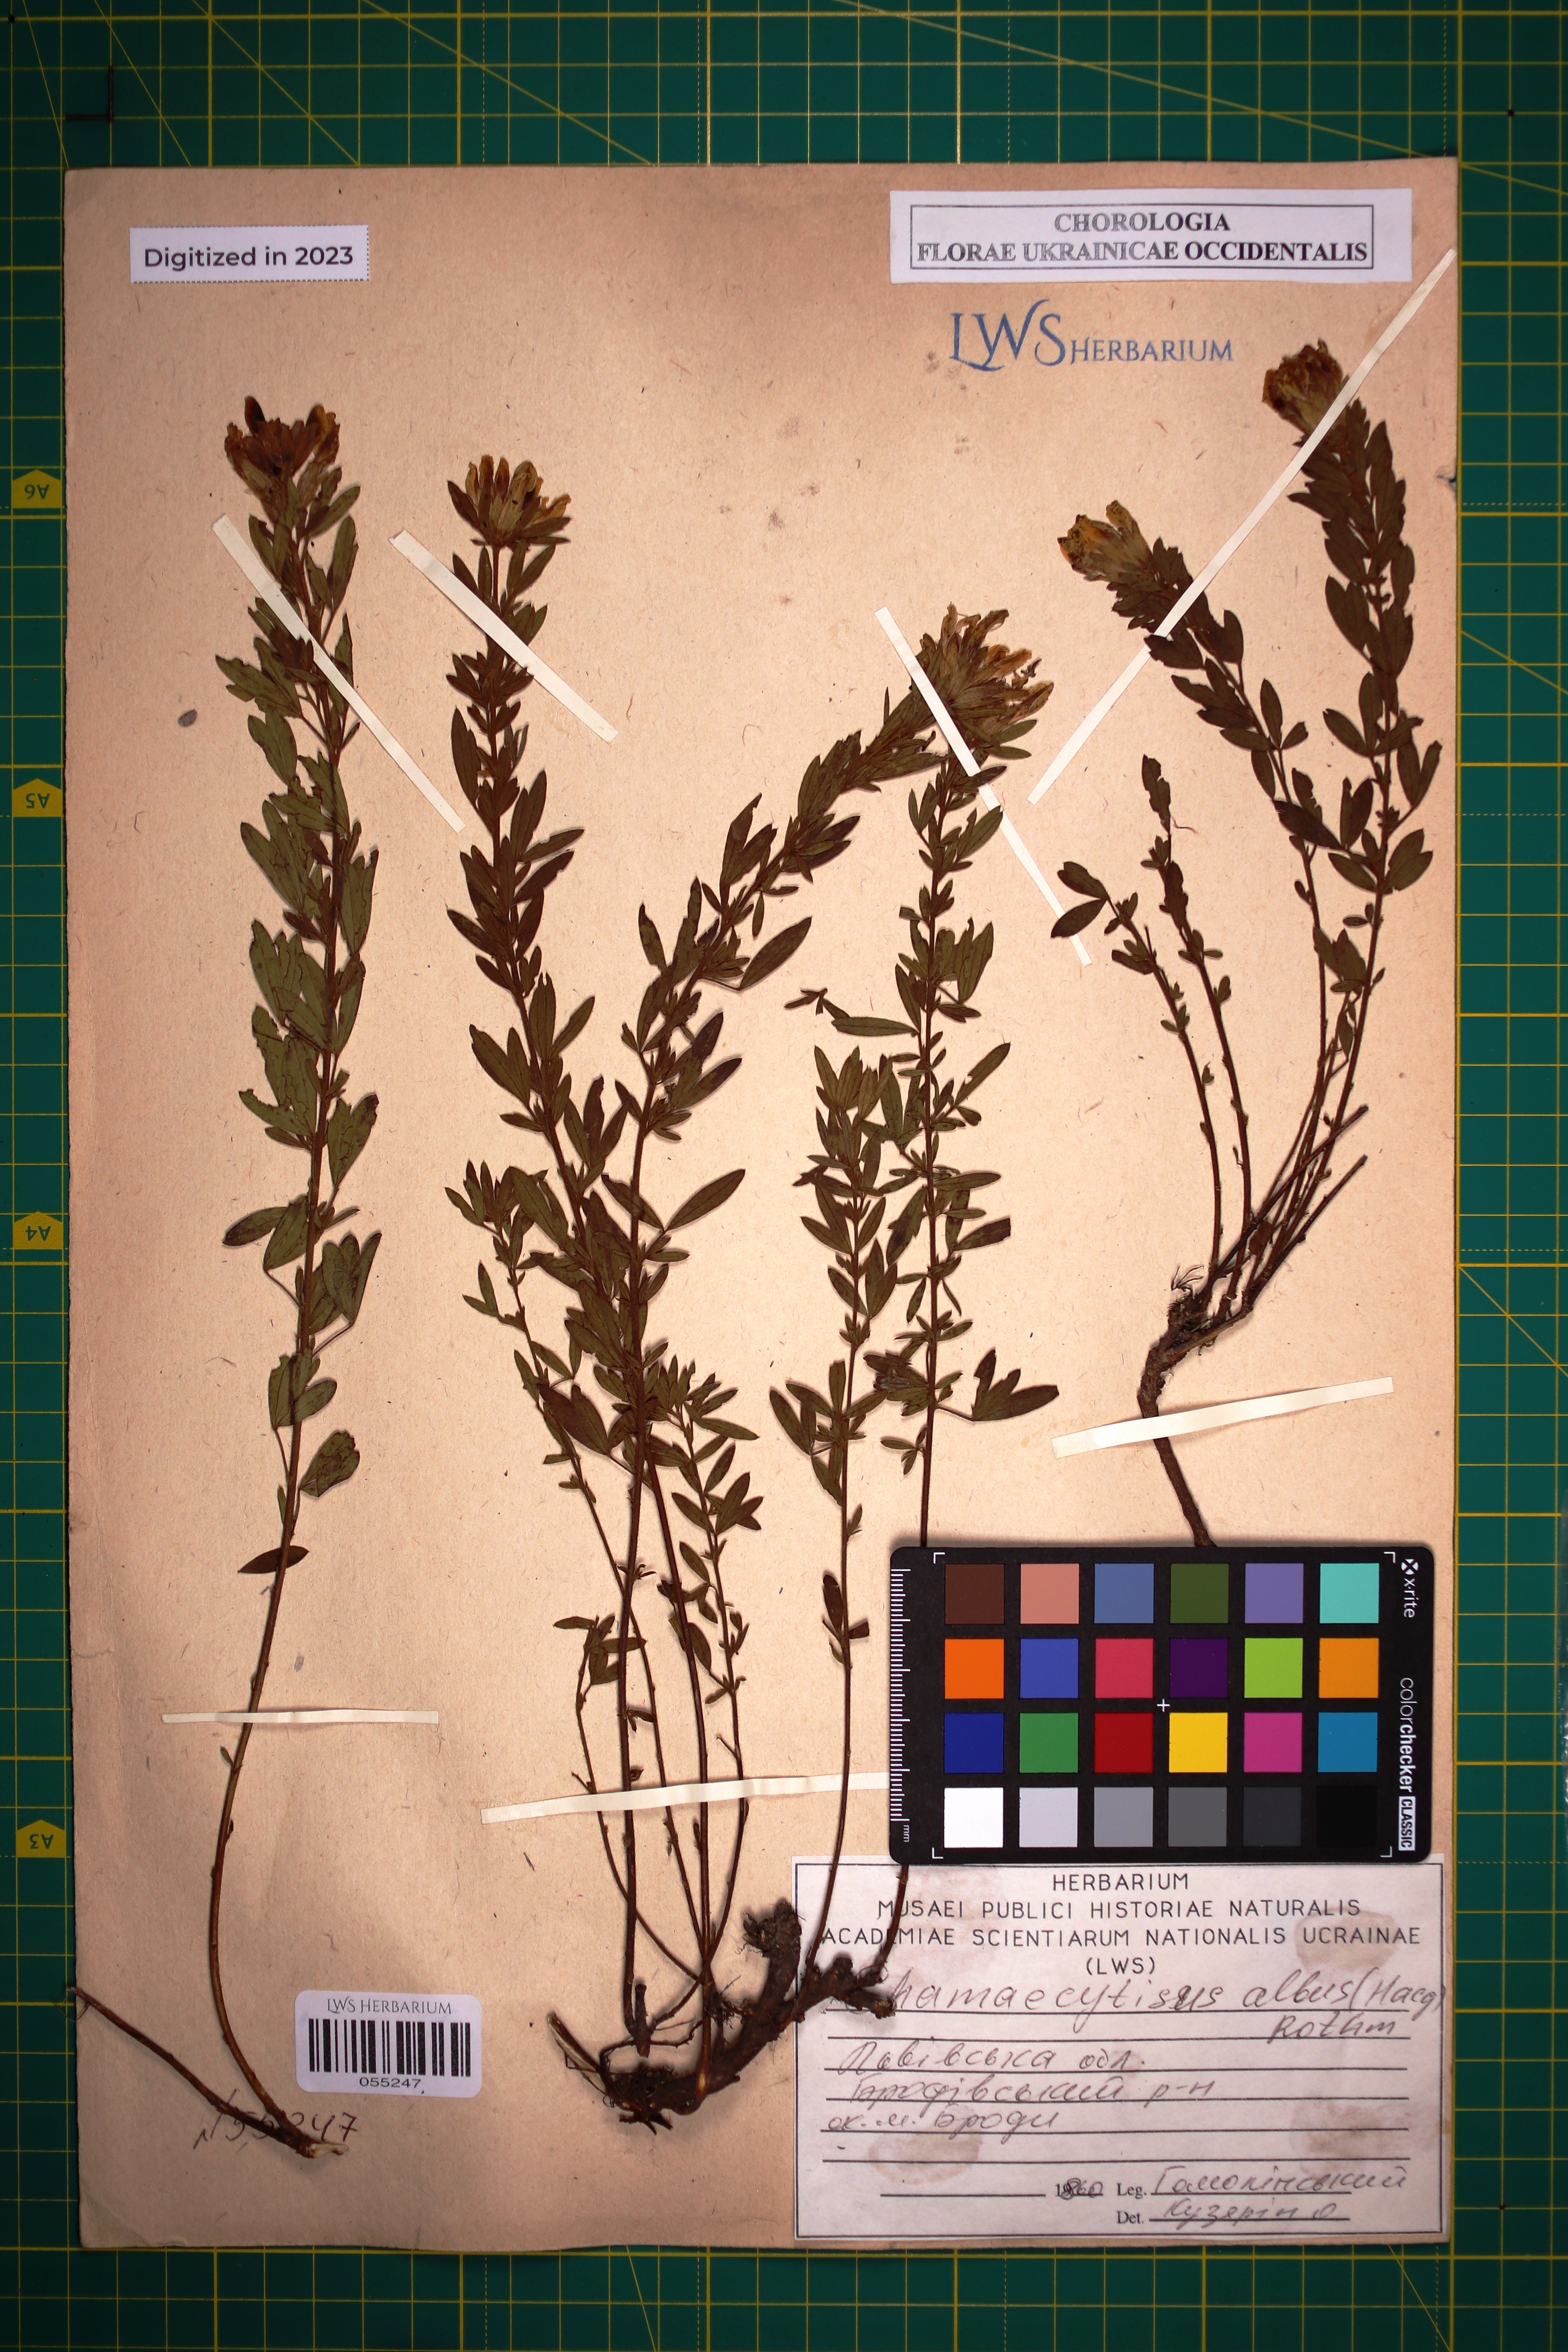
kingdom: Plantae
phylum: Tracheophyta
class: Magnoliopsida
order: Fabales
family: Fabaceae
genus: Chamaecytisus
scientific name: Chamaecytisus albus
